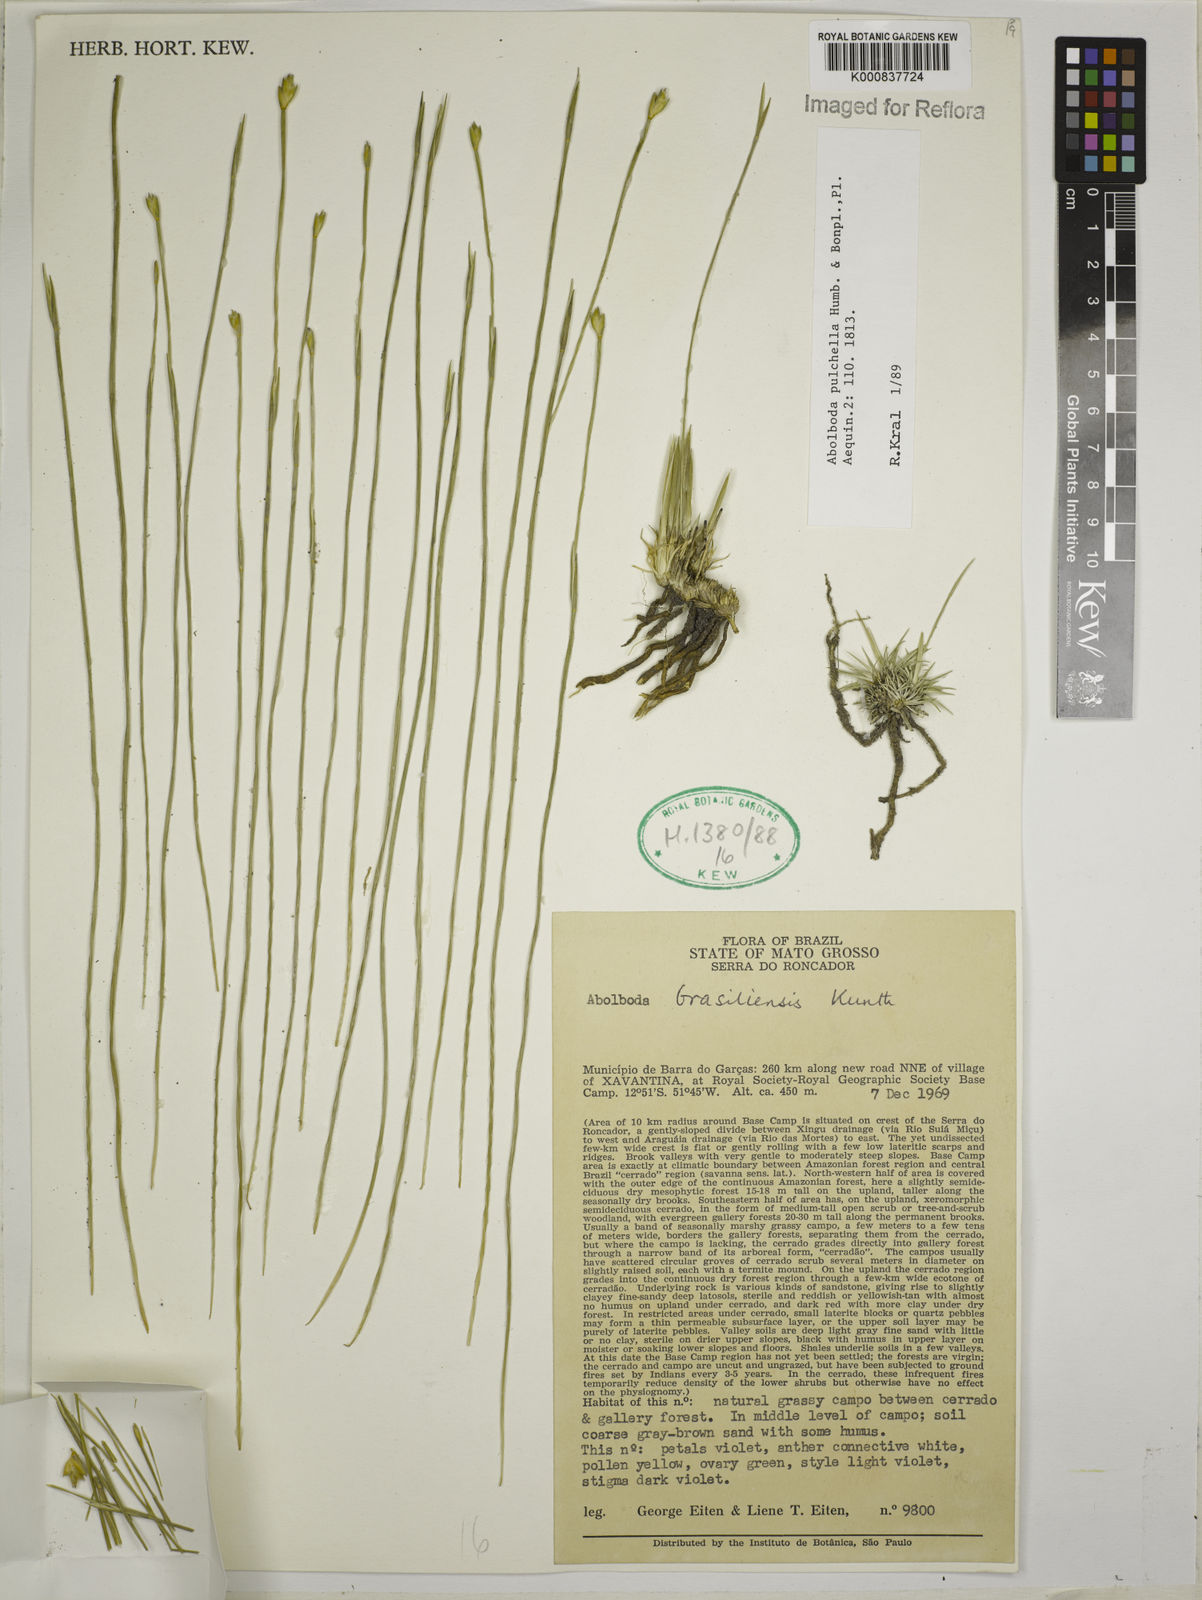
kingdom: Plantae
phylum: Tracheophyta
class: Liliopsida
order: Poales
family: Xyridaceae
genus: Abolboda
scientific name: Abolboda pulchella
